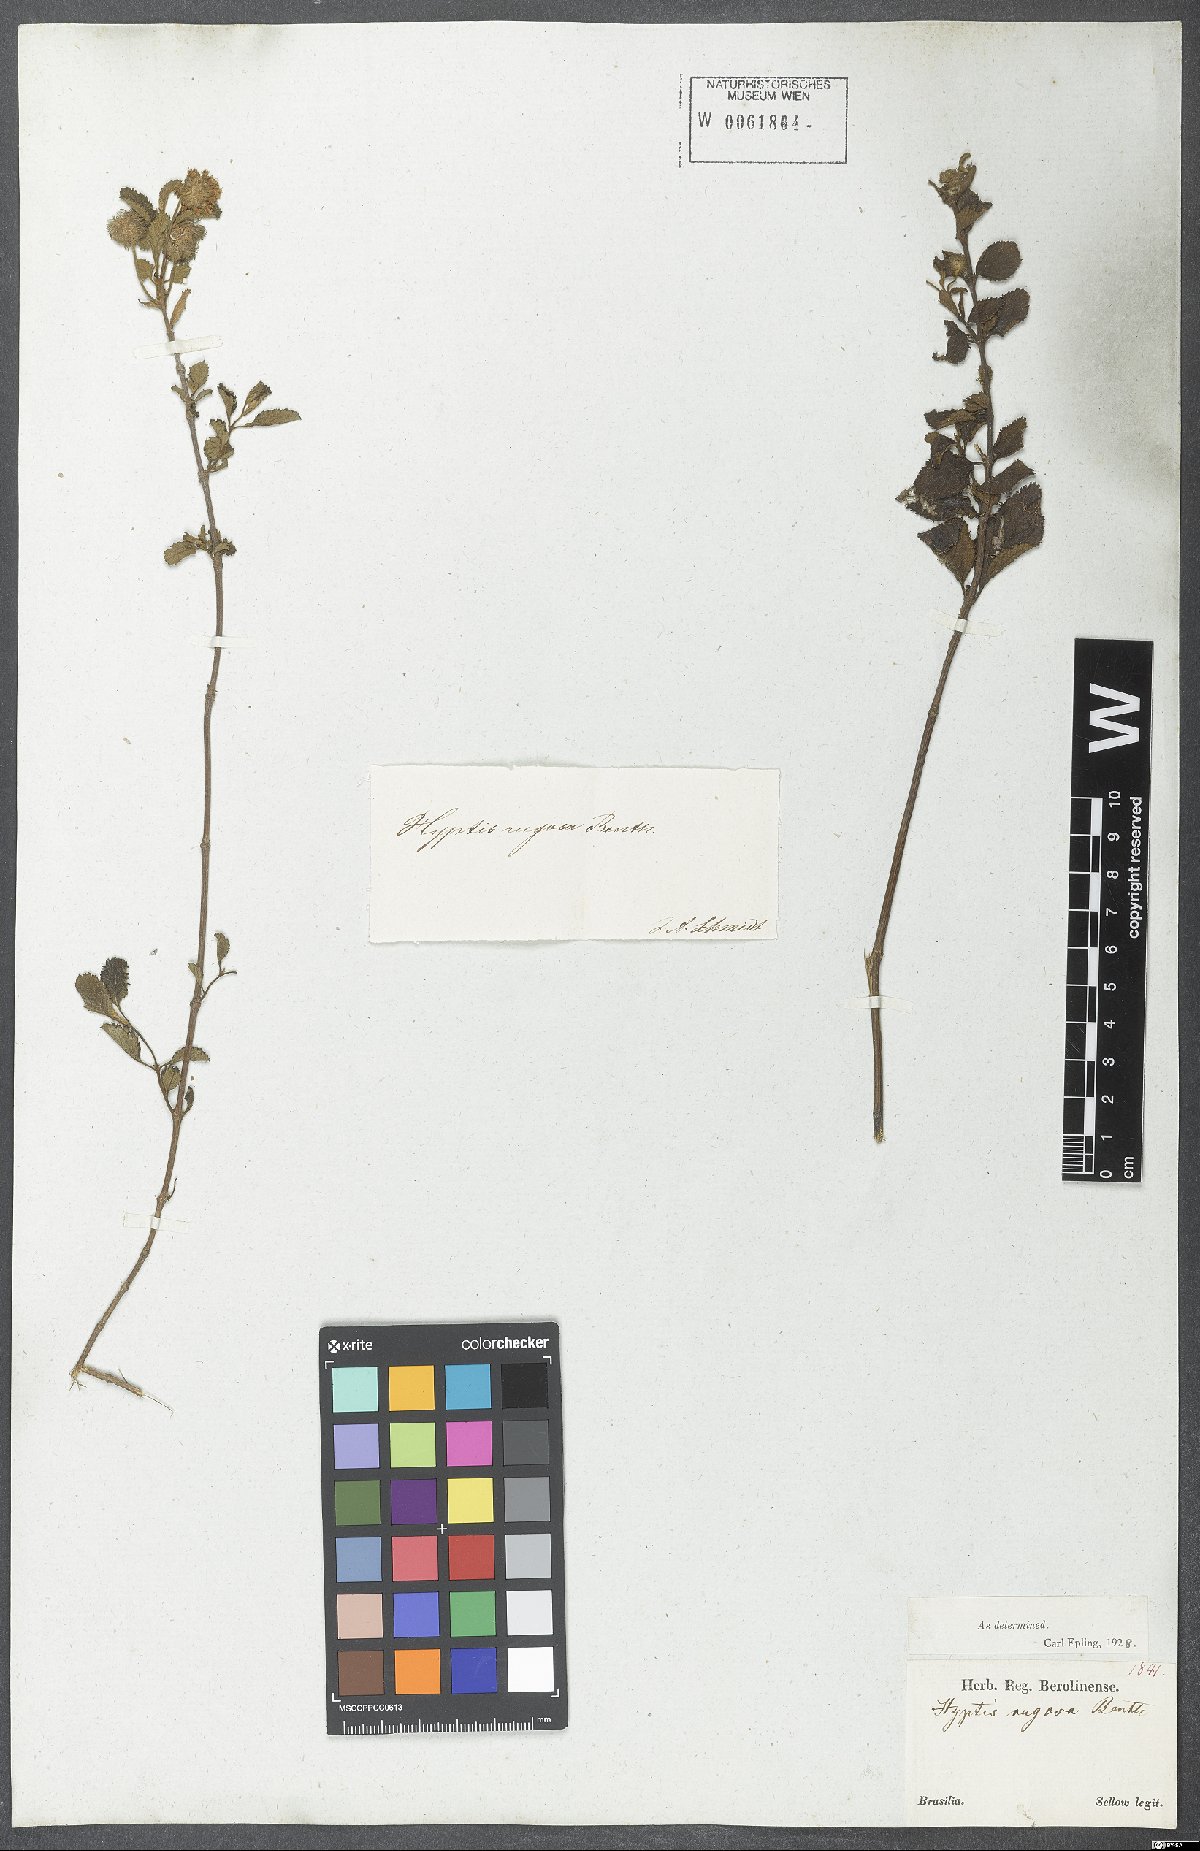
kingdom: Plantae
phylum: Tracheophyta
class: Magnoliopsida
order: Lamiales
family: Lamiaceae
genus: Cyanocephalus
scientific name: Cyanocephalus rugosus
